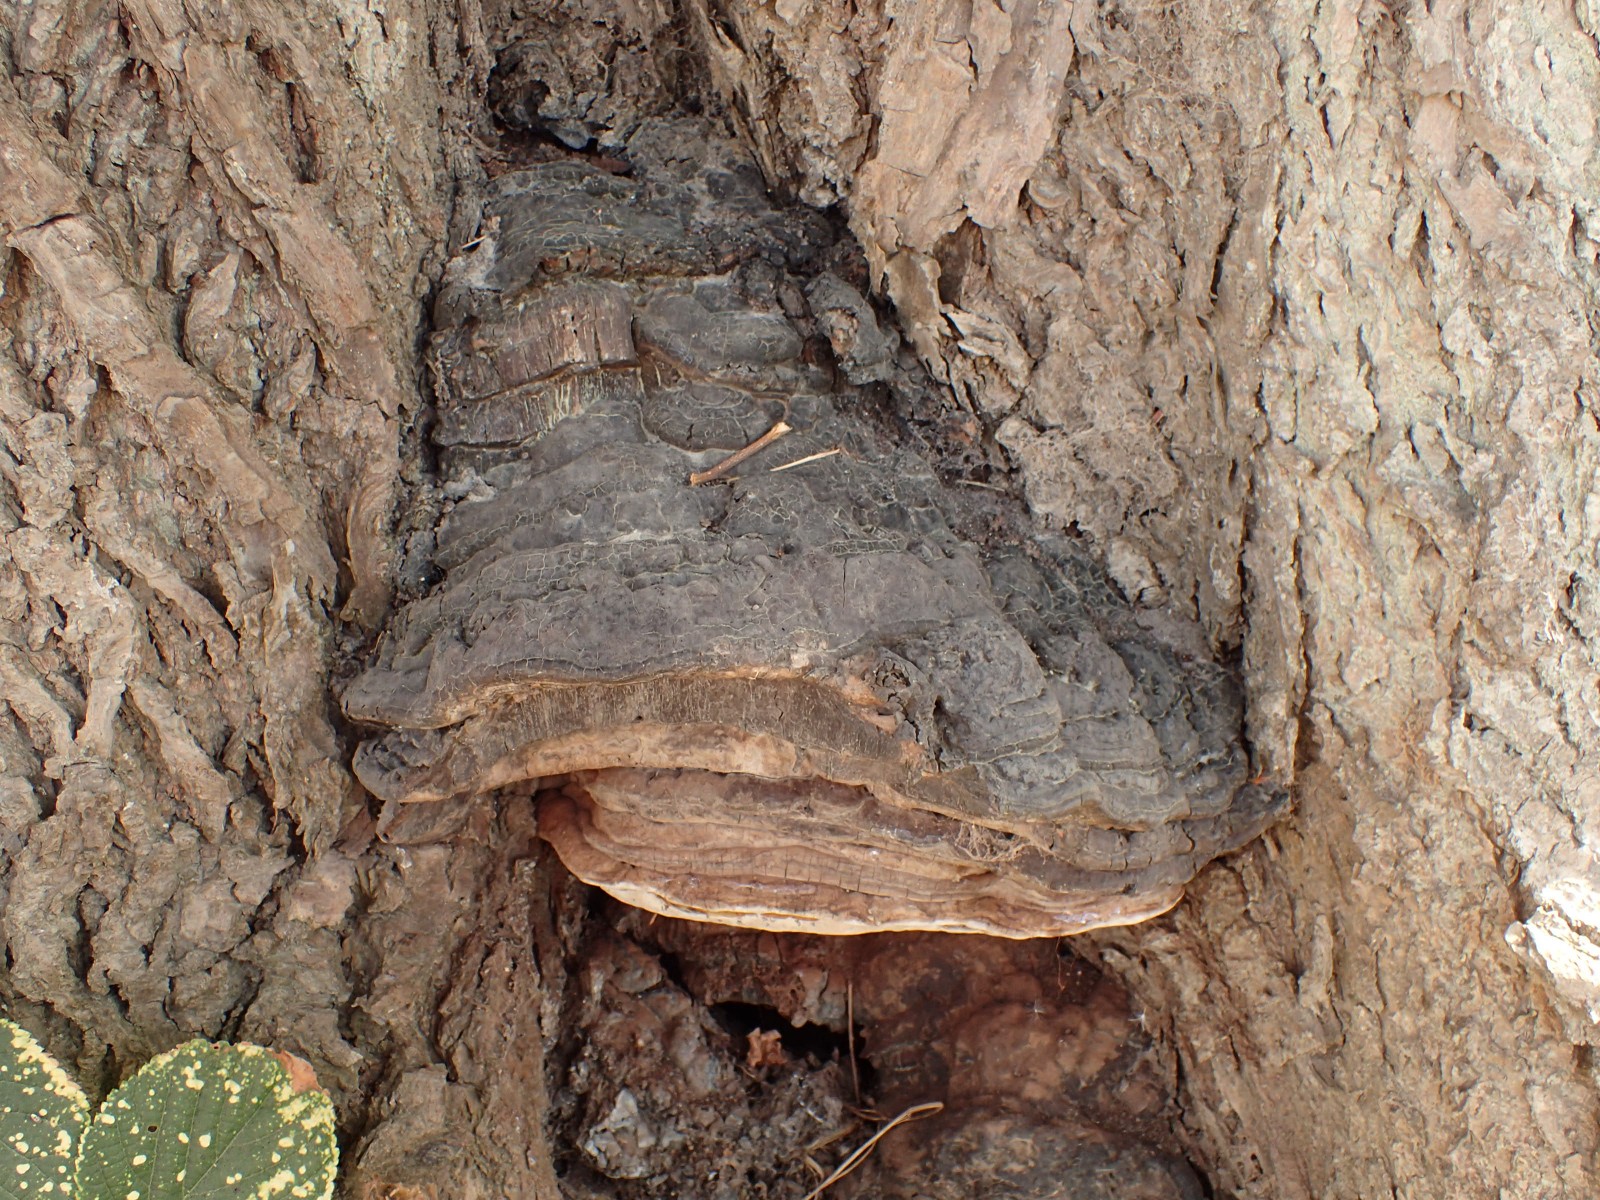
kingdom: Fungi
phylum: Basidiomycota
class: Agaricomycetes
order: Polyporales
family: Polyporaceae
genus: Ganoderma
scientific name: Ganoderma adspersum
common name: grov lakporesvamp
